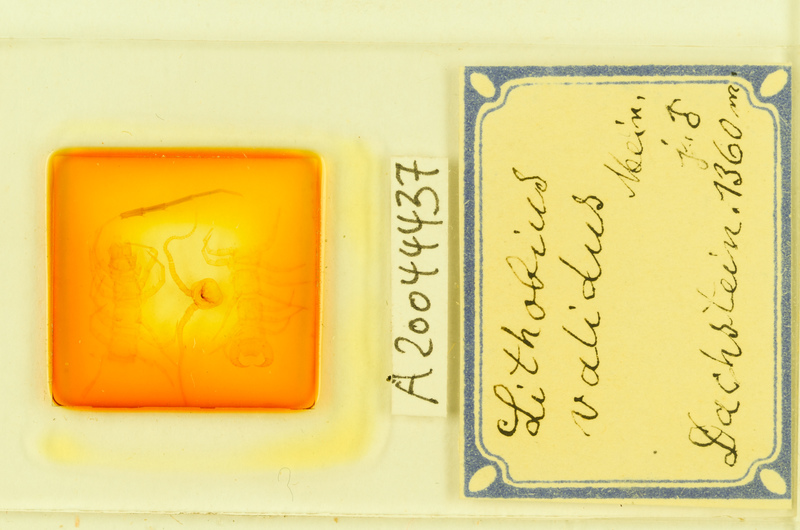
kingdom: Animalia
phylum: Arthropoda
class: Chilopoda
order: Lithobiomorpha
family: Lithobiidae
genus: Lithobius
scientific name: Lithobius punctulatus
